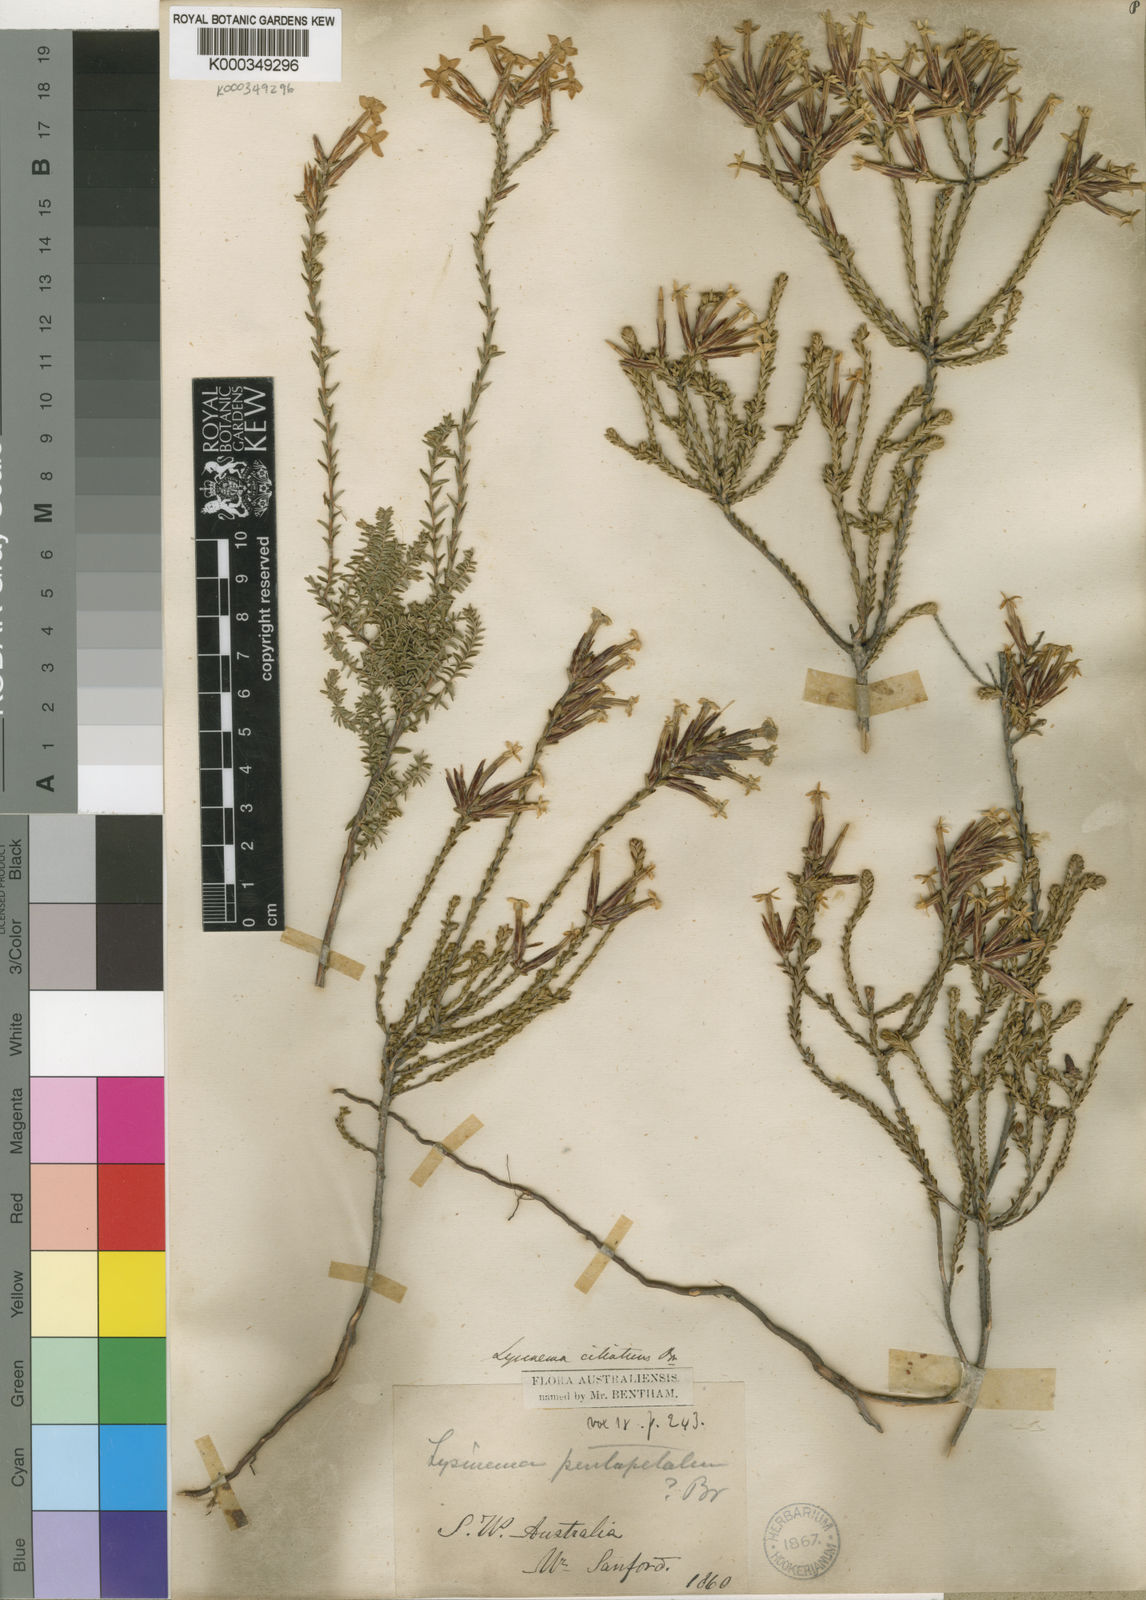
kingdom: Plantae
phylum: Tracheophyta
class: Magnoliopsida
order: Ericales
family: Ericaceae
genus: Lysinema
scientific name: Lysinema ciliatum
